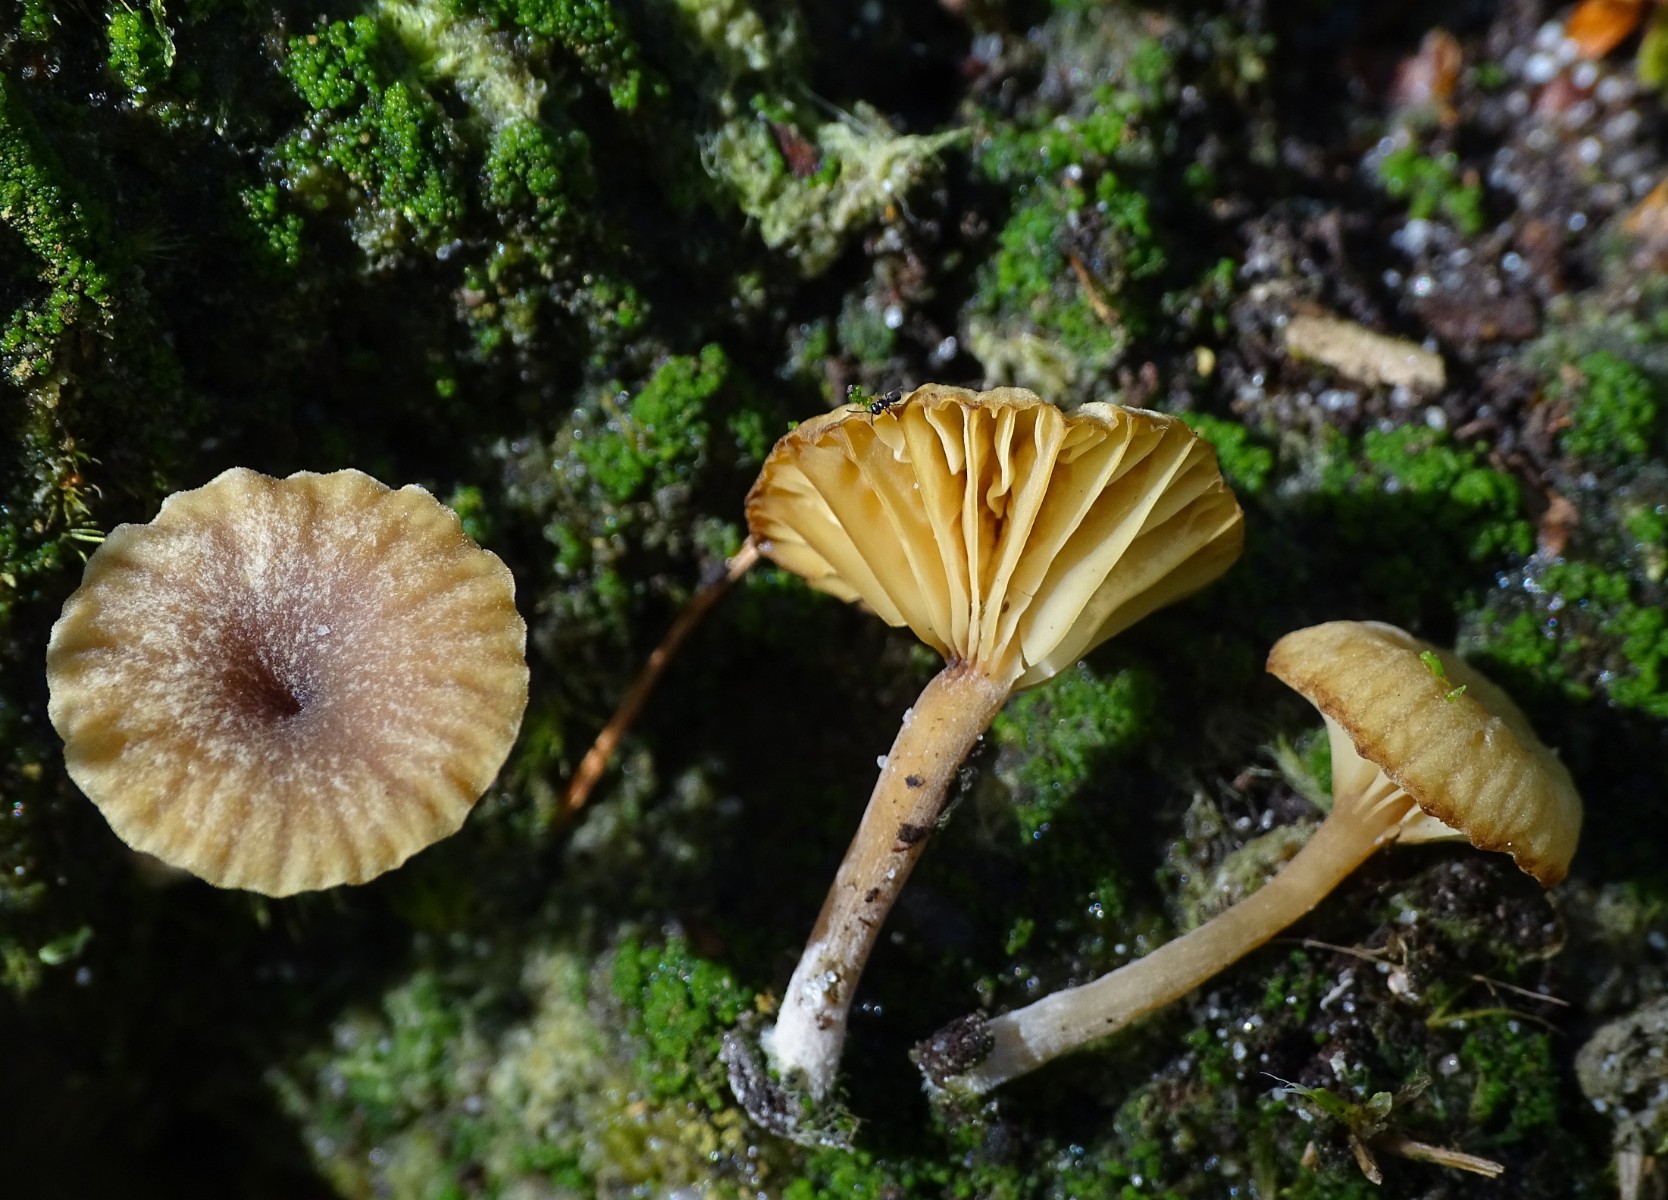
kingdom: Fungi
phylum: Basidiomycota
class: Agaricomycetes
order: Agaricales
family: Hygrophoraceae
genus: Lichenomphalia
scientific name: Lichenomphalia umbellifera
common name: tørve-lavhat
